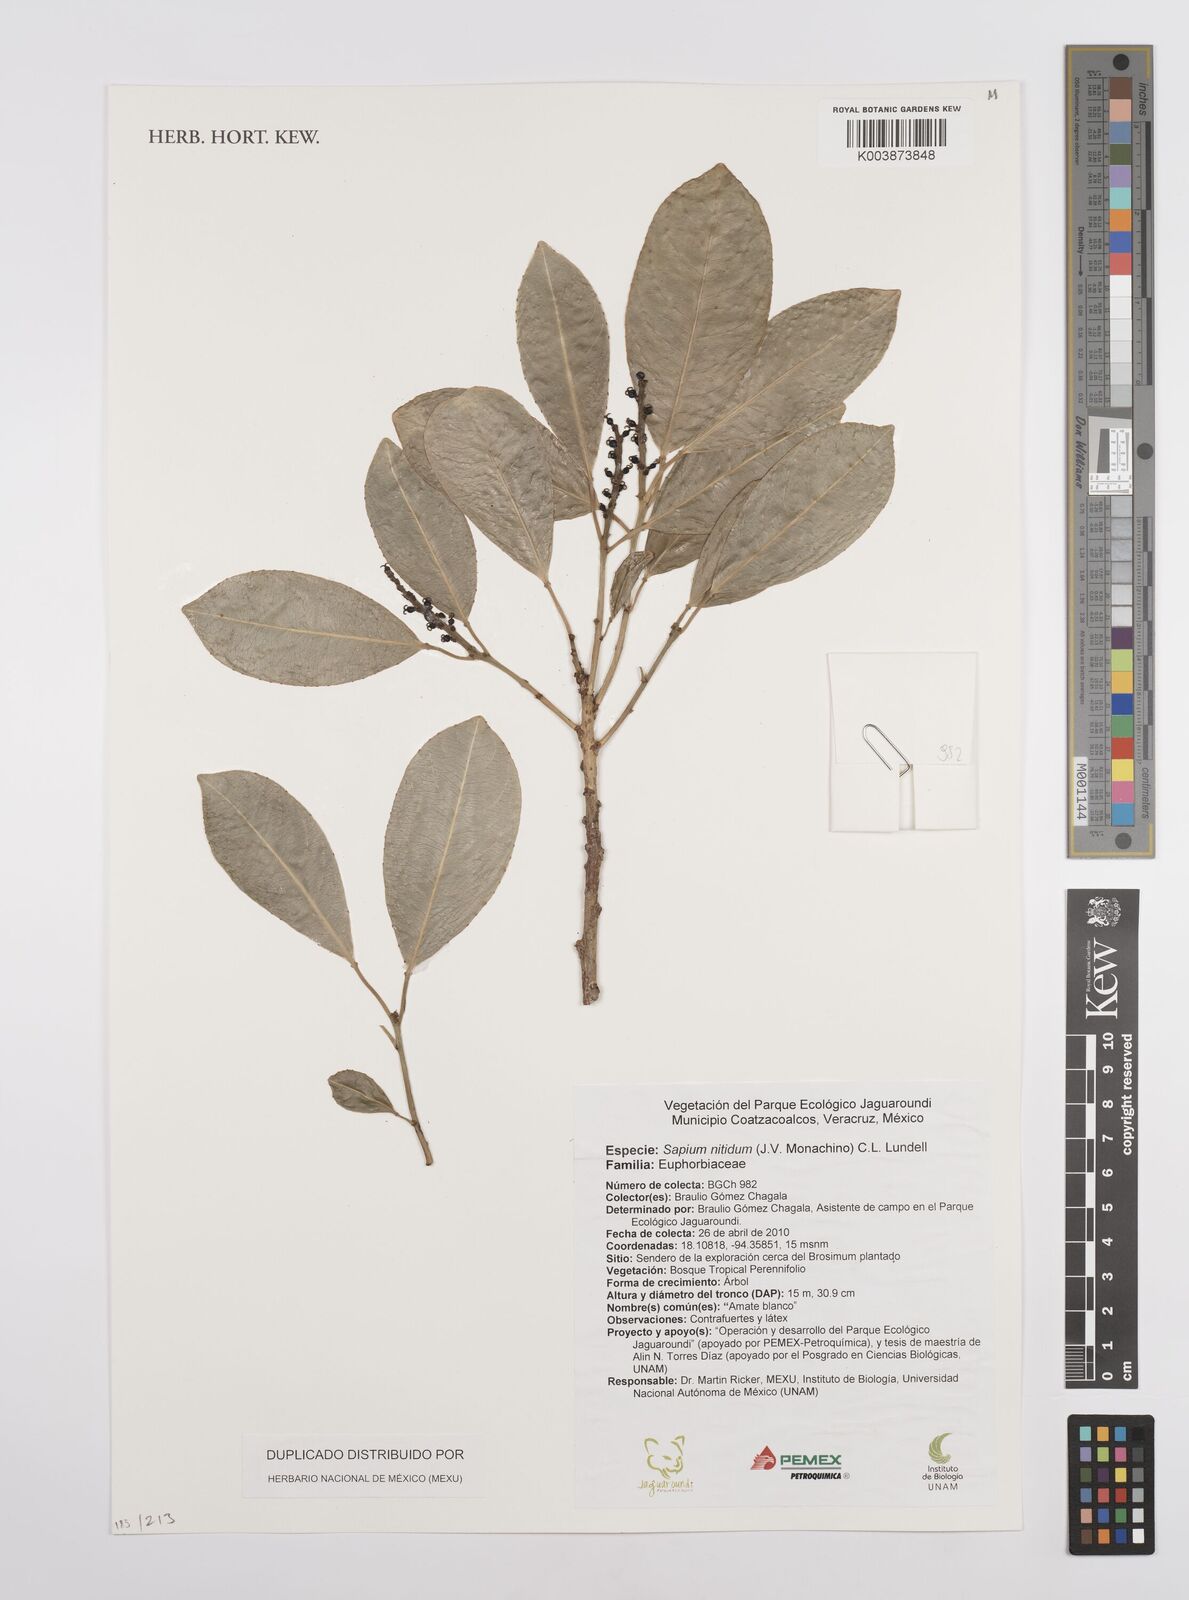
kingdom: Plantae
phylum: Tracheophyta
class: Magnoliopsida
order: Malpighiales
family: Euphorbiaceae
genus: Sapium
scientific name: Sapium lateriflorum
